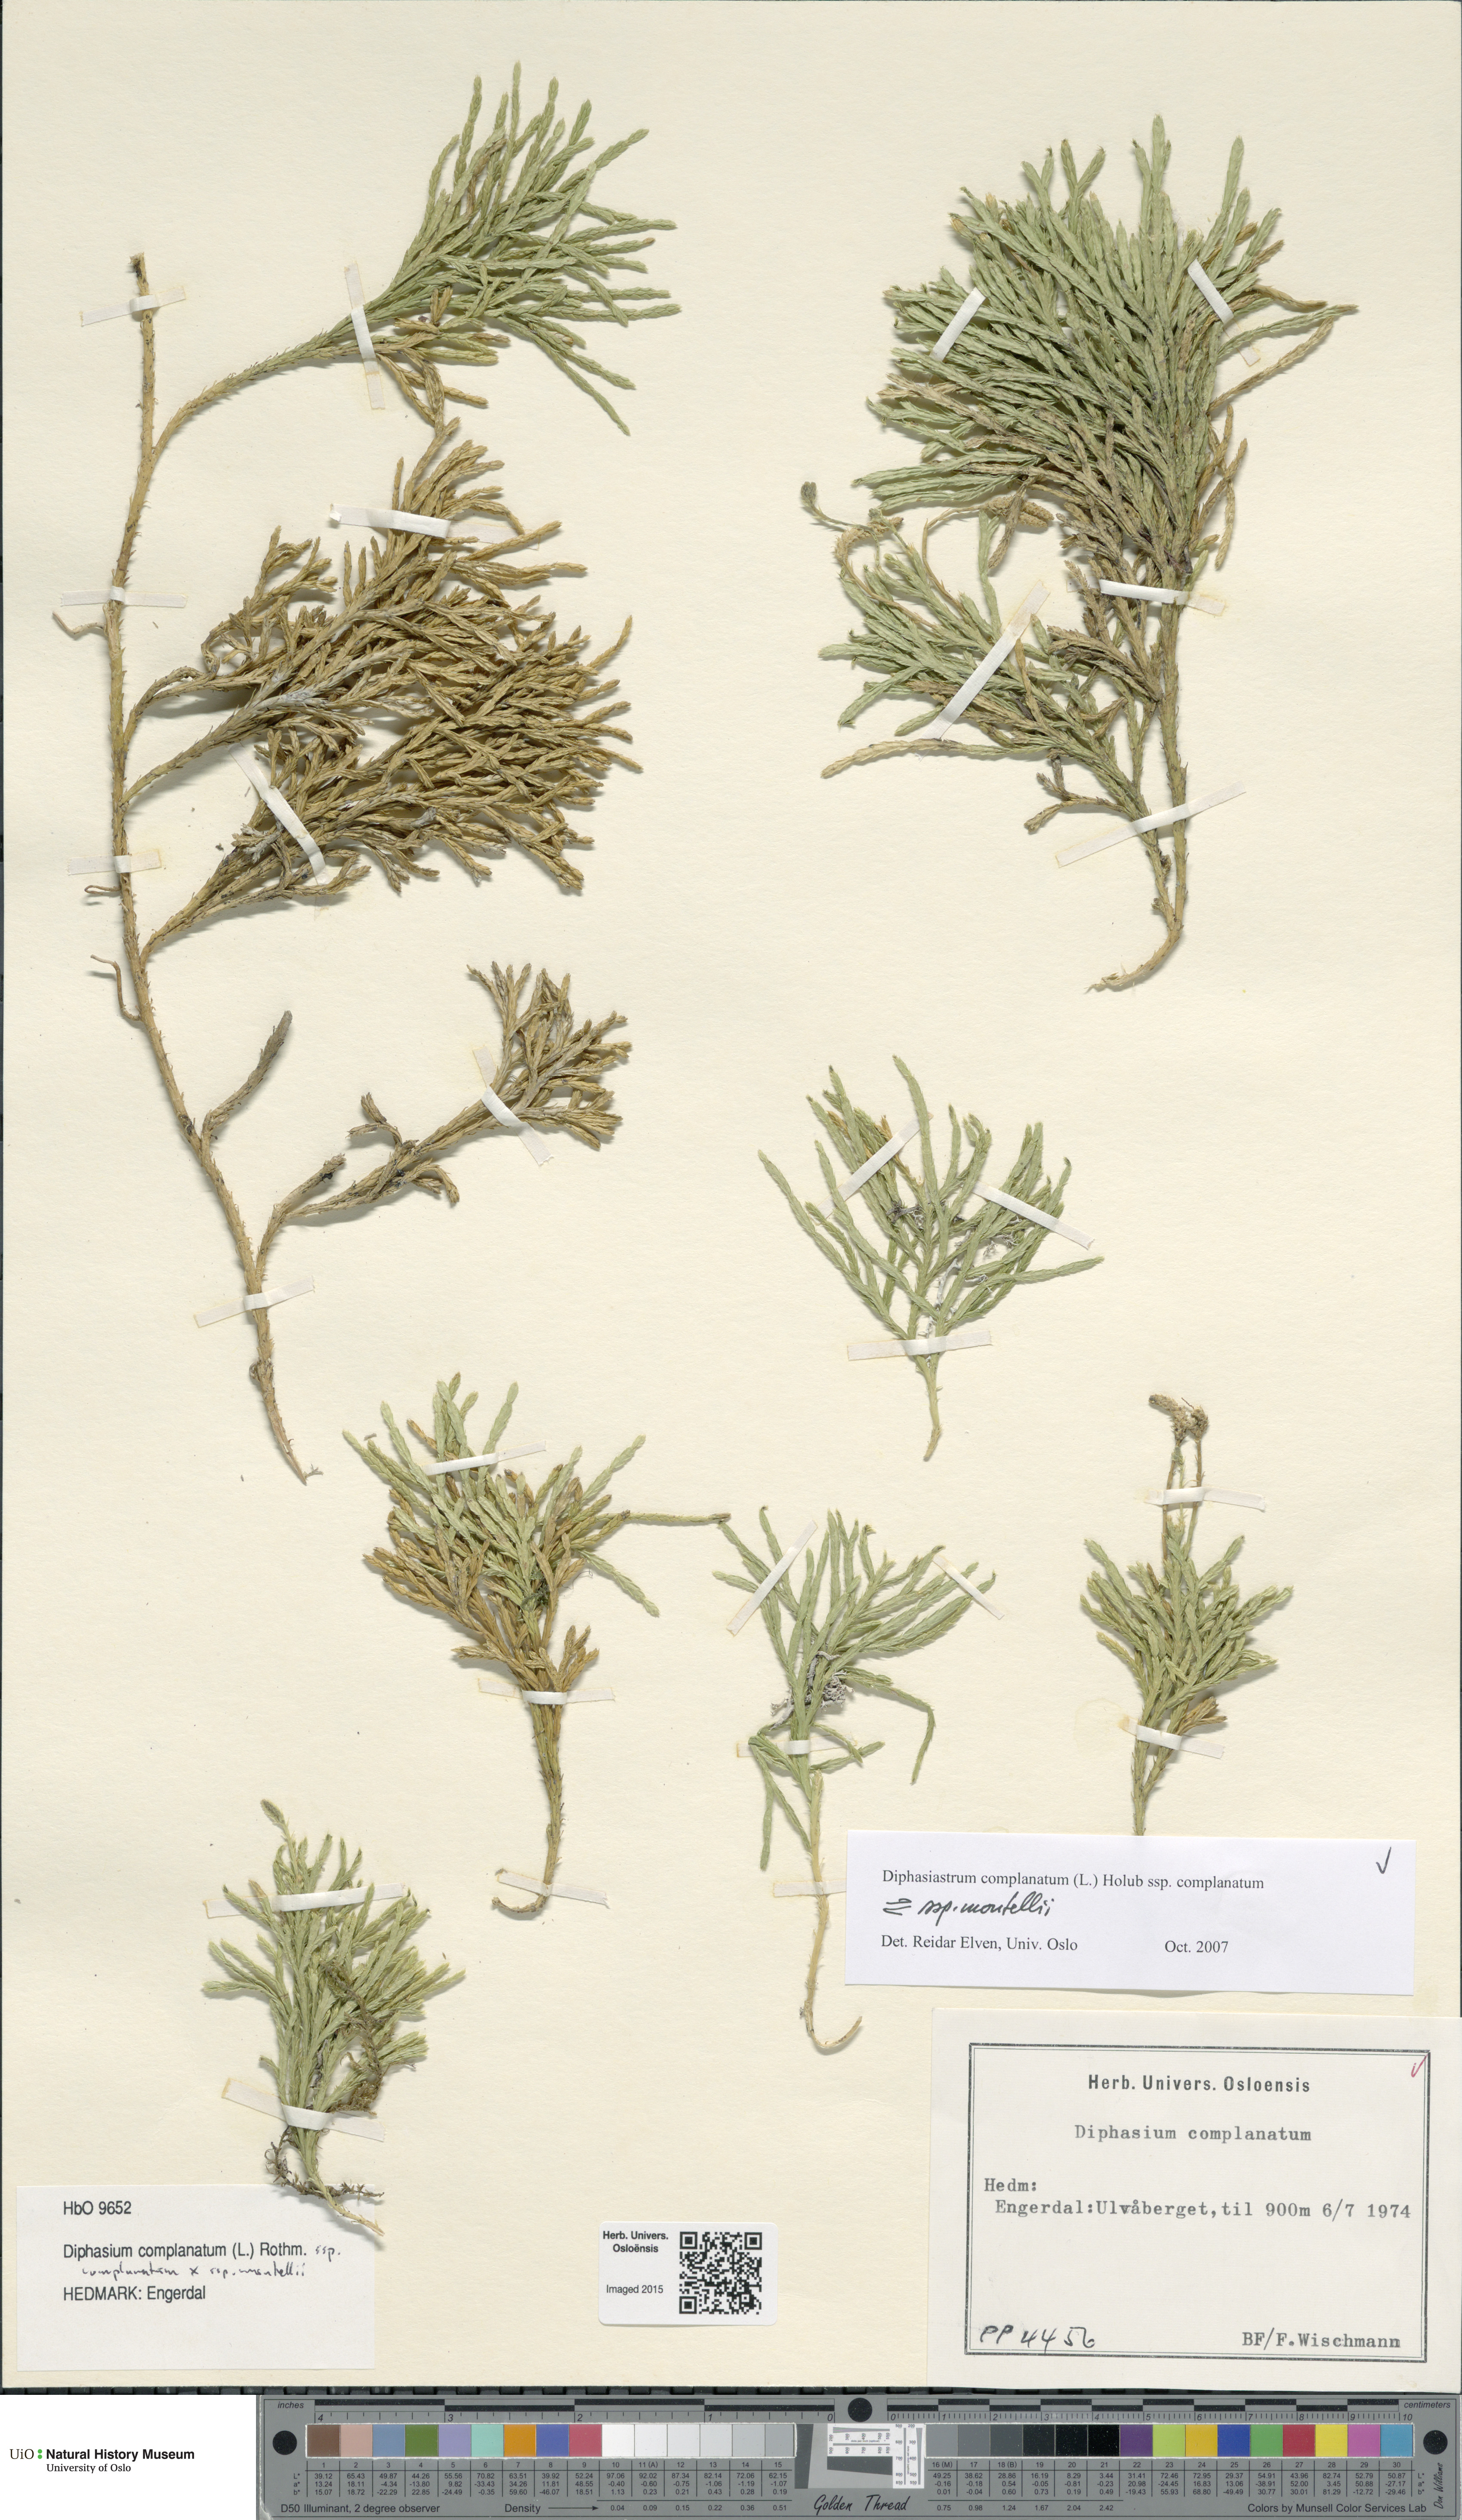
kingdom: Plantae
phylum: Tracheophyta
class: Lycopodiopsida
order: Lycopodiales
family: Lycopodiaceae
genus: Diphasiastrum
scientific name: Diphasiastrum
